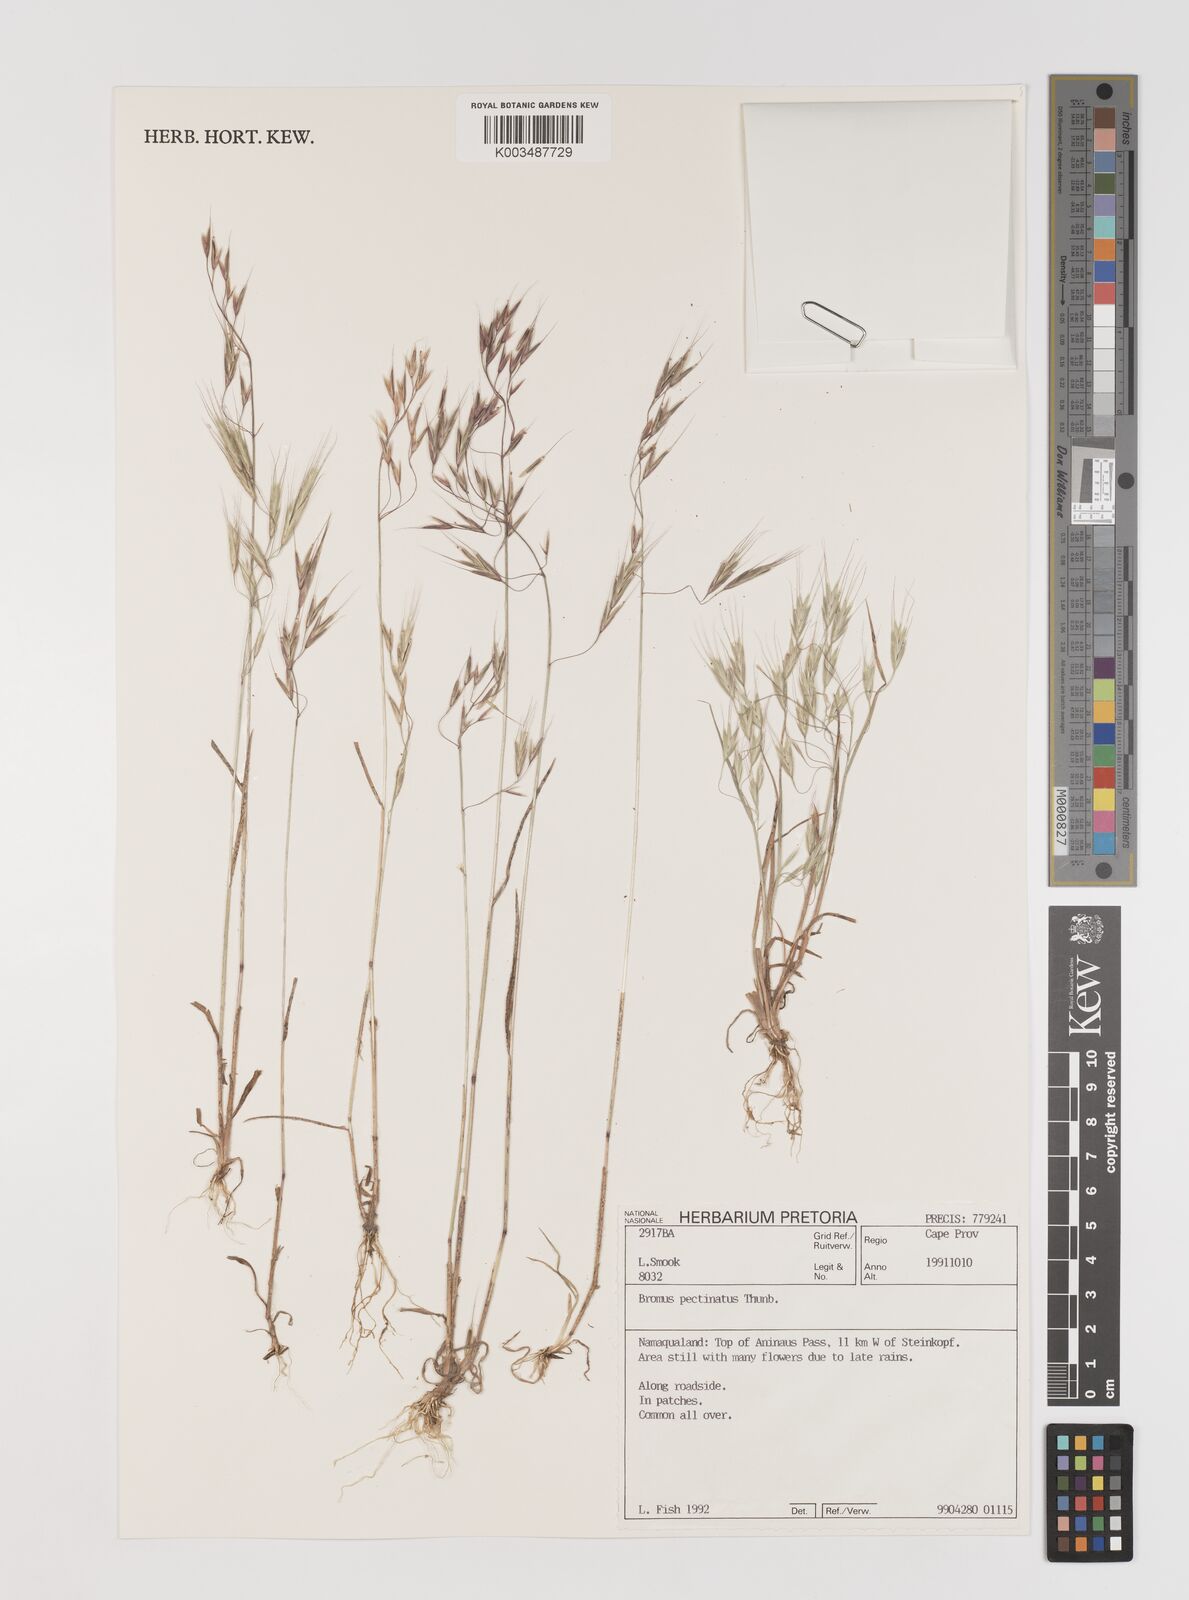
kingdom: Plantae
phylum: Tracheophyta
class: Liliopsida
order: Poales
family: Poaceae
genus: Bromus
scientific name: Bromus pectinatus
